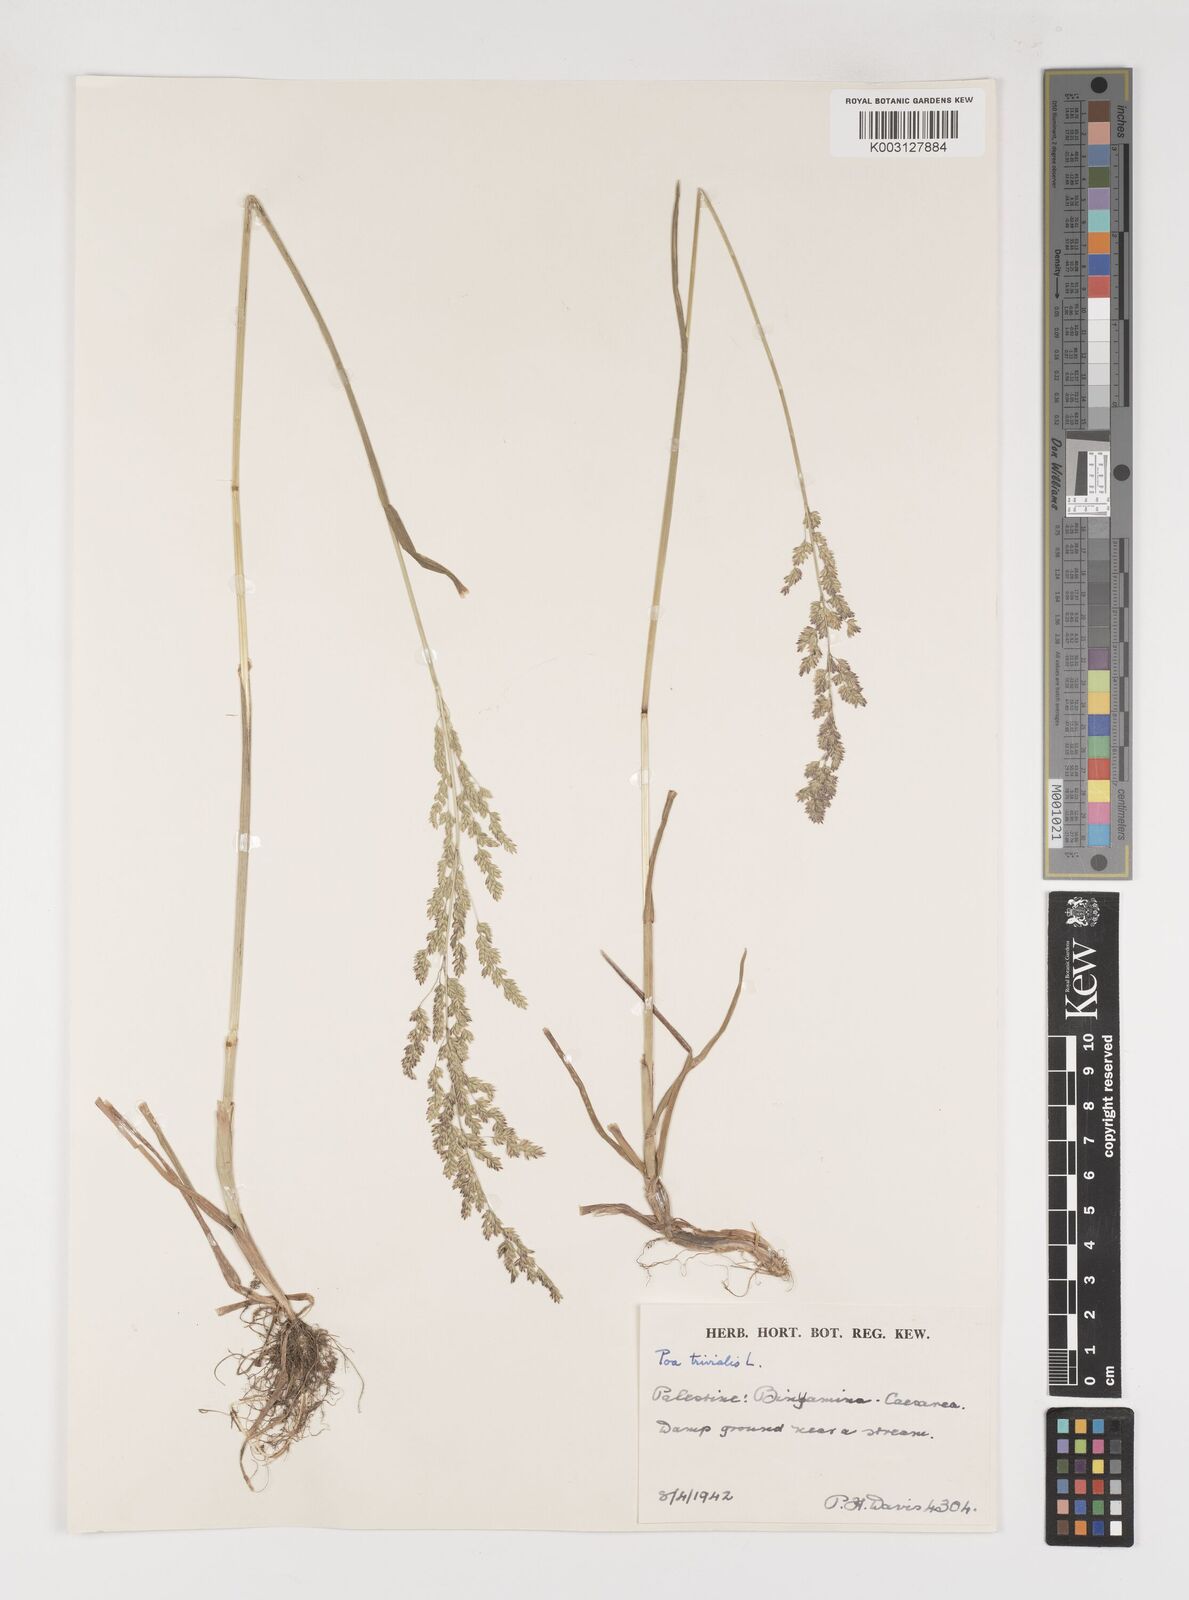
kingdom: Plantae
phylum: Tracheophyta
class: Liliopsida
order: Poales
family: Poaceae
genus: Poa
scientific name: Poa trivialis
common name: Rough bluegrass
